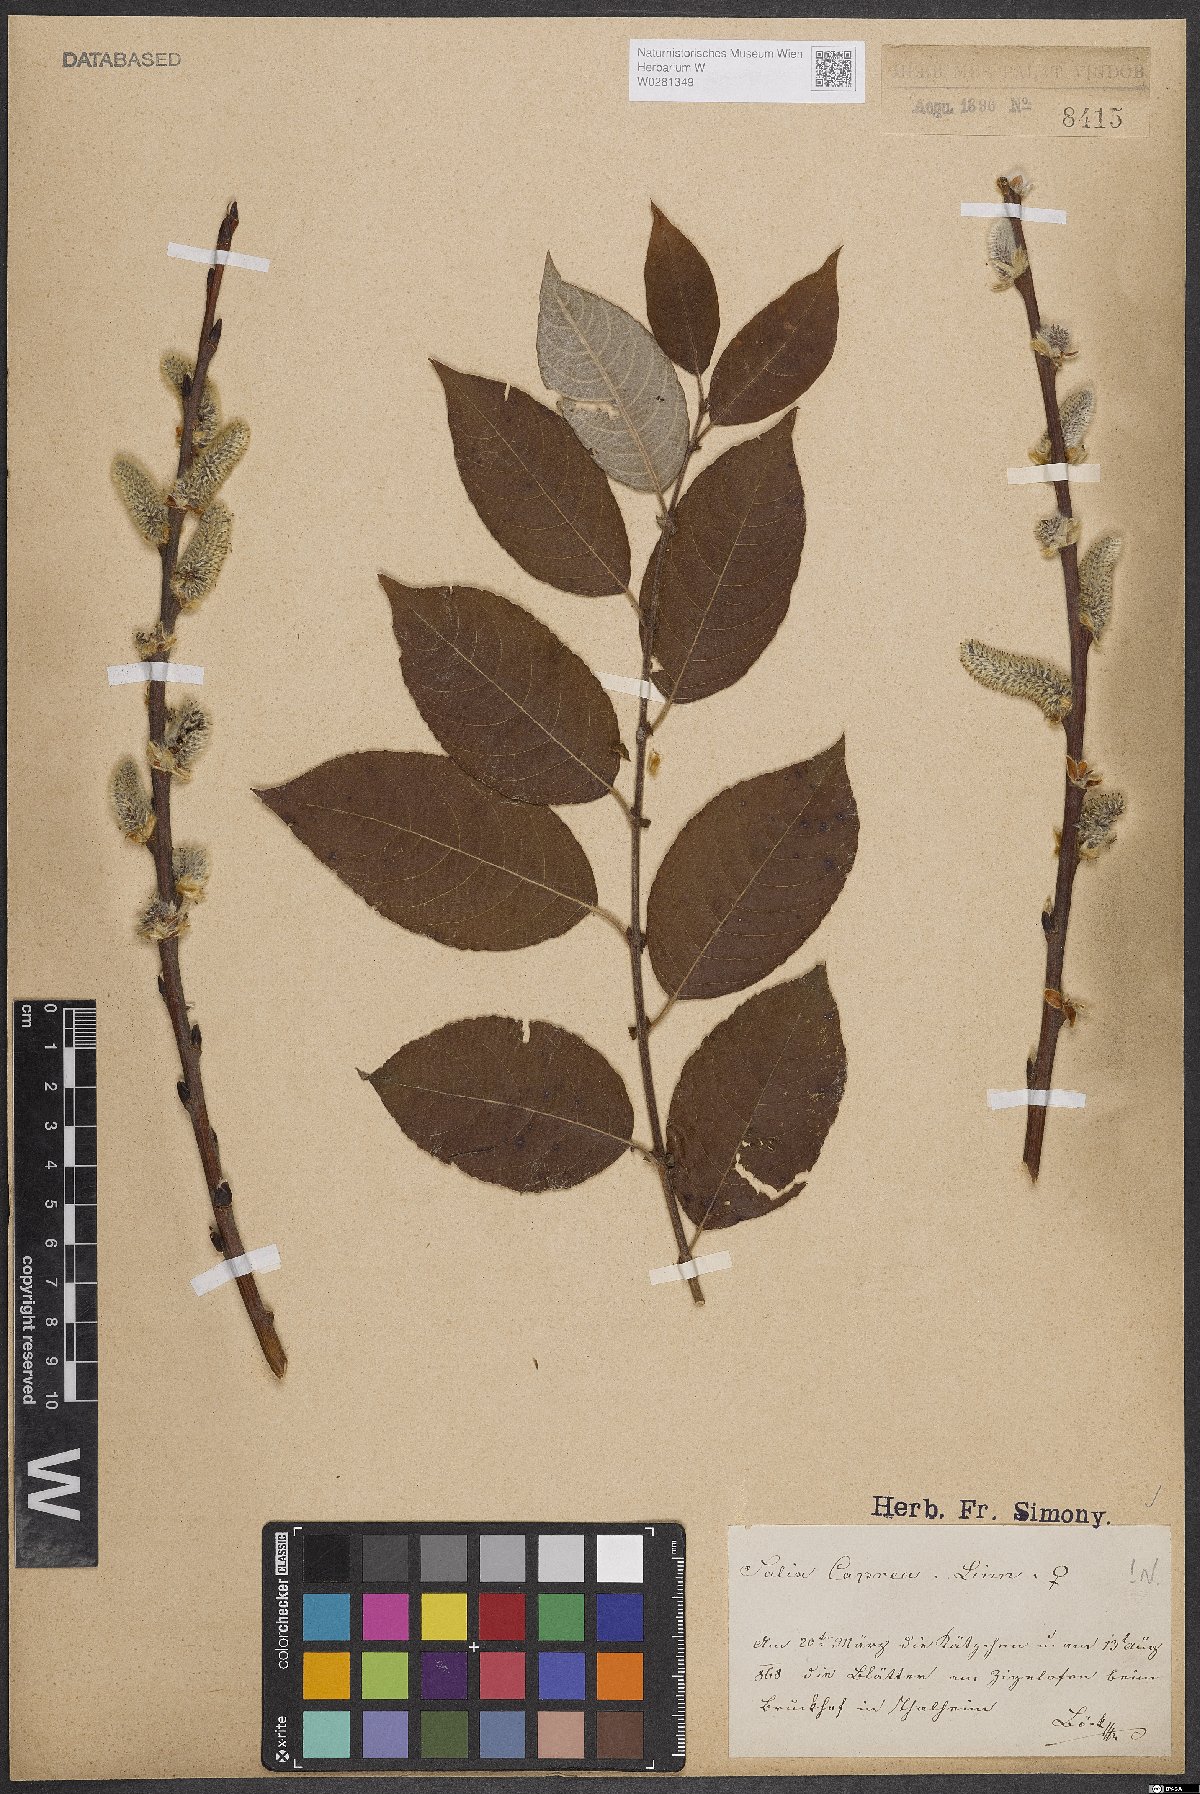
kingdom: Plantae
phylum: Tracheophyta
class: Magnoliopsida
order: Malpighiales
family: Salicaceae
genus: Salix
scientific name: Salix caprea
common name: Goat willow
